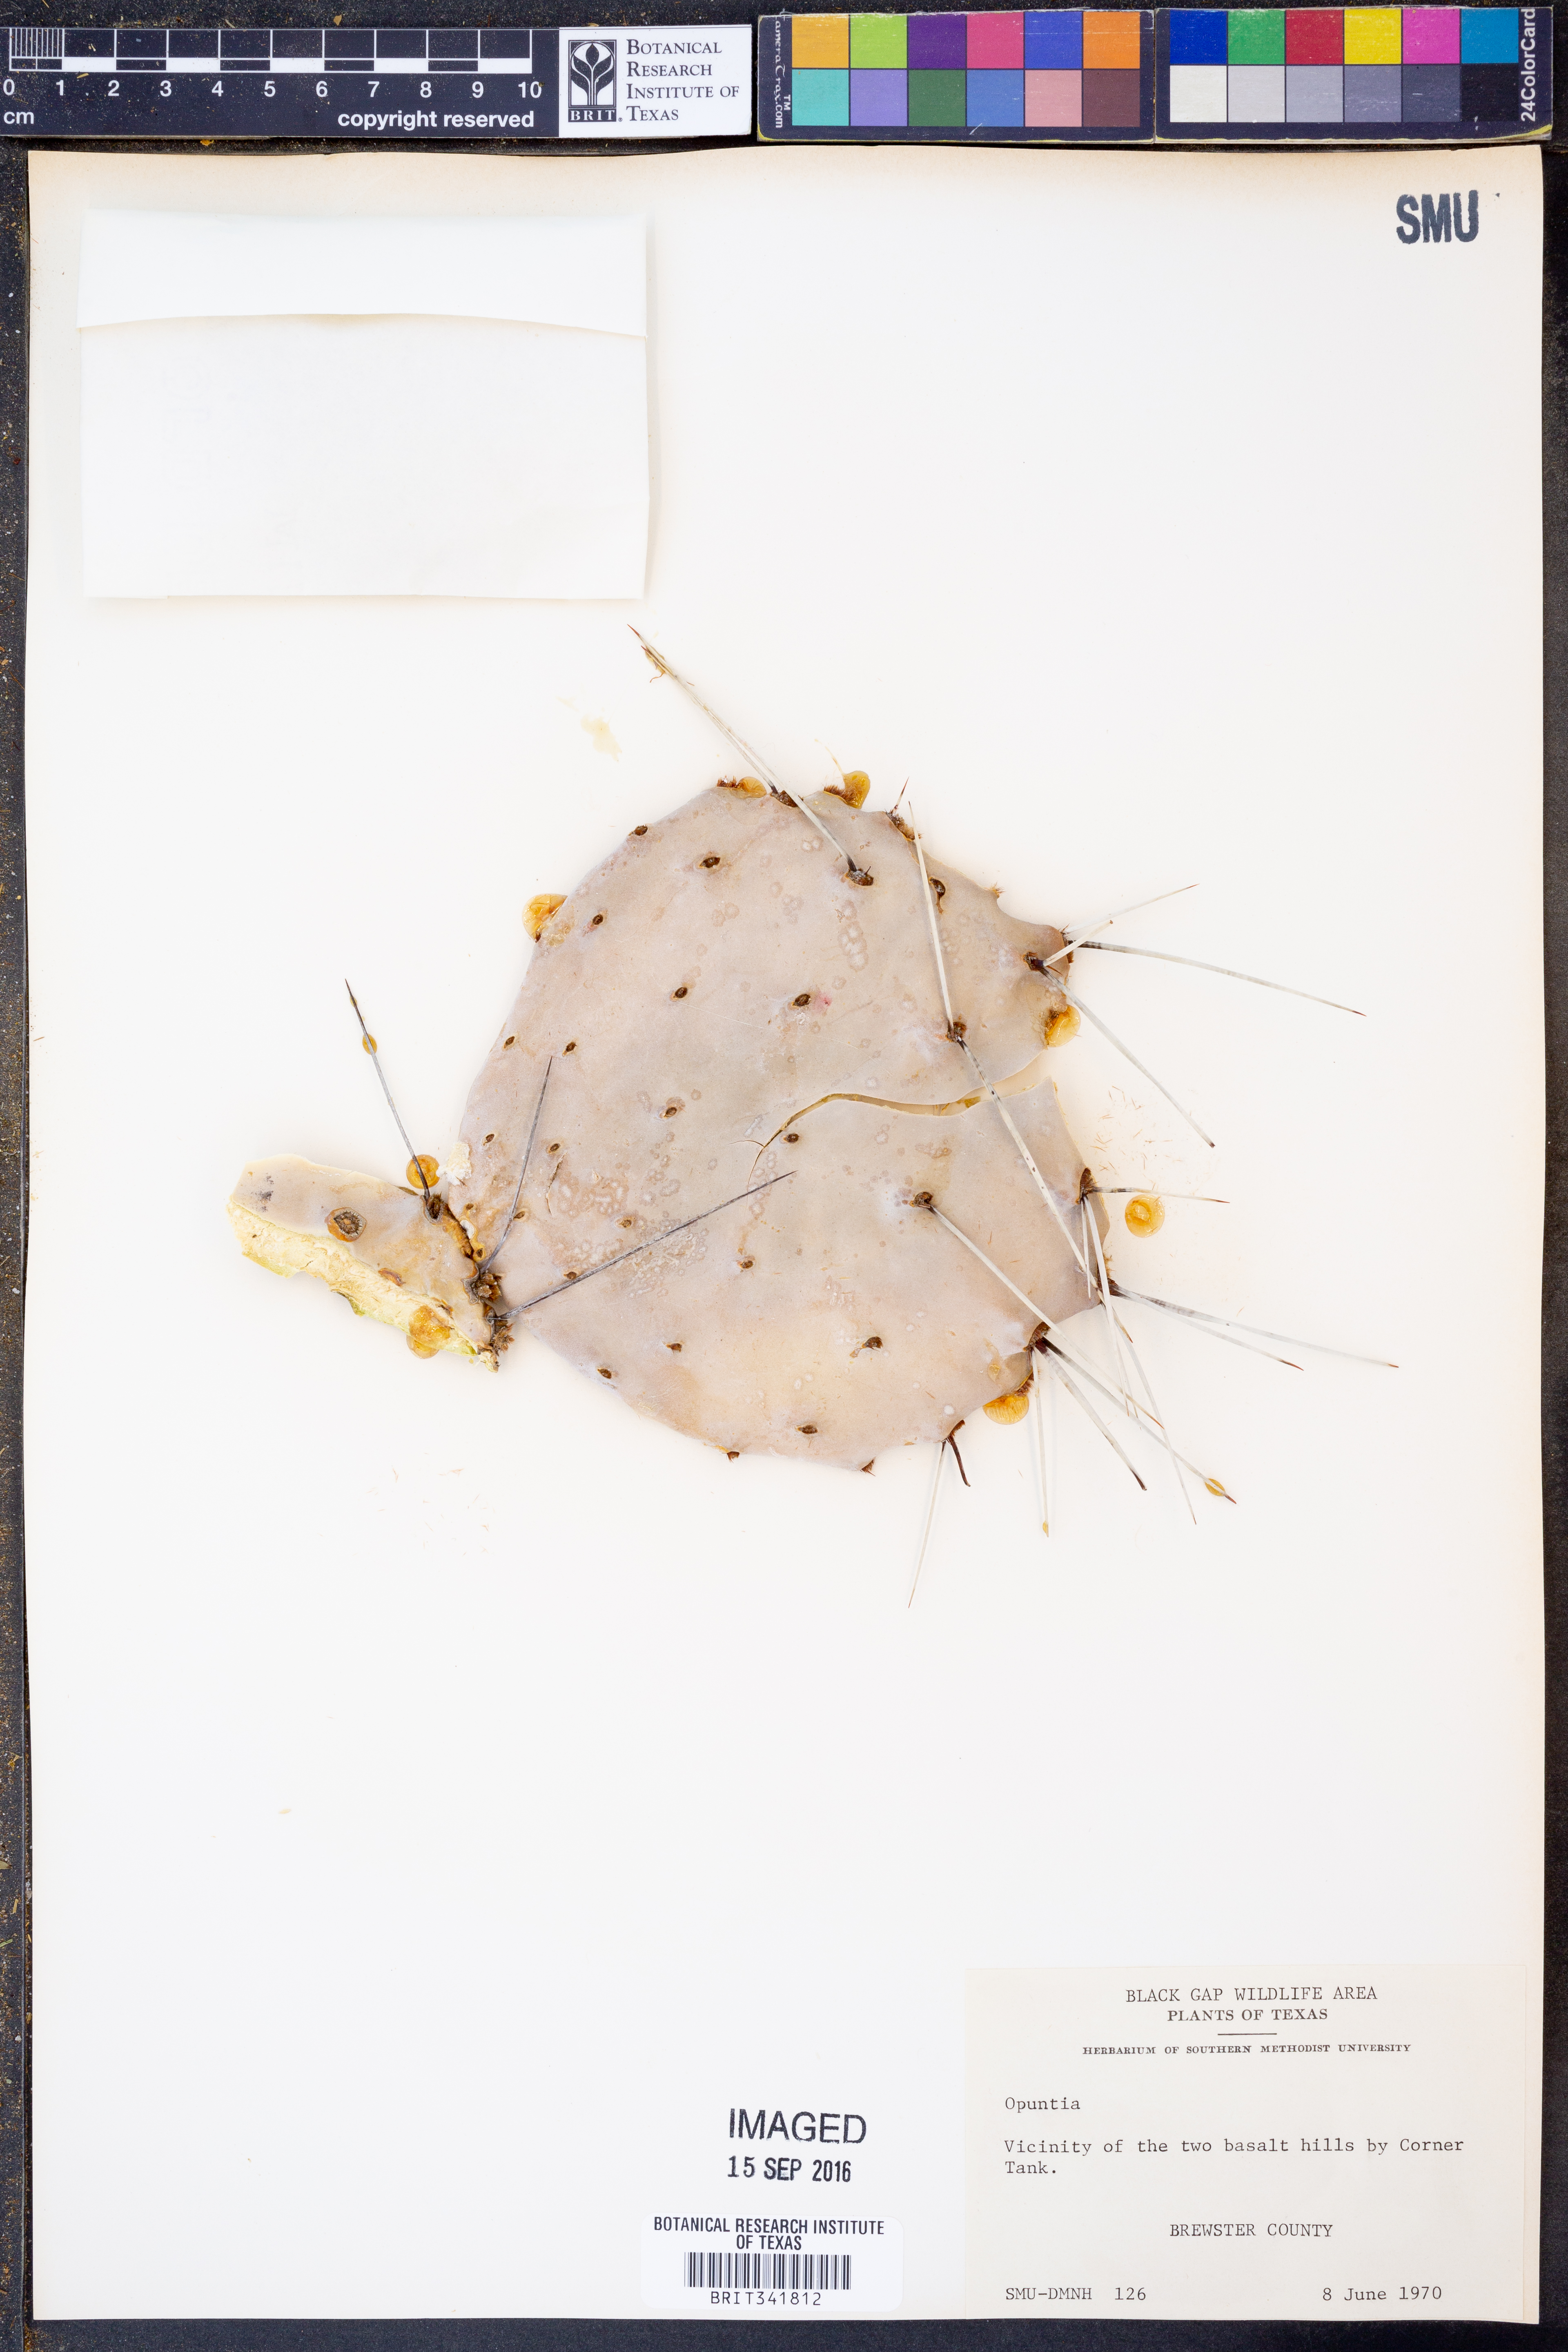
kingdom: Plantae
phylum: Tracheophyta
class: Magnoliopsida
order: Caryophyllales
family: Cactaceae
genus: Opuntia
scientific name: Opuntia macrocentra
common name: Purple prickly-pear
